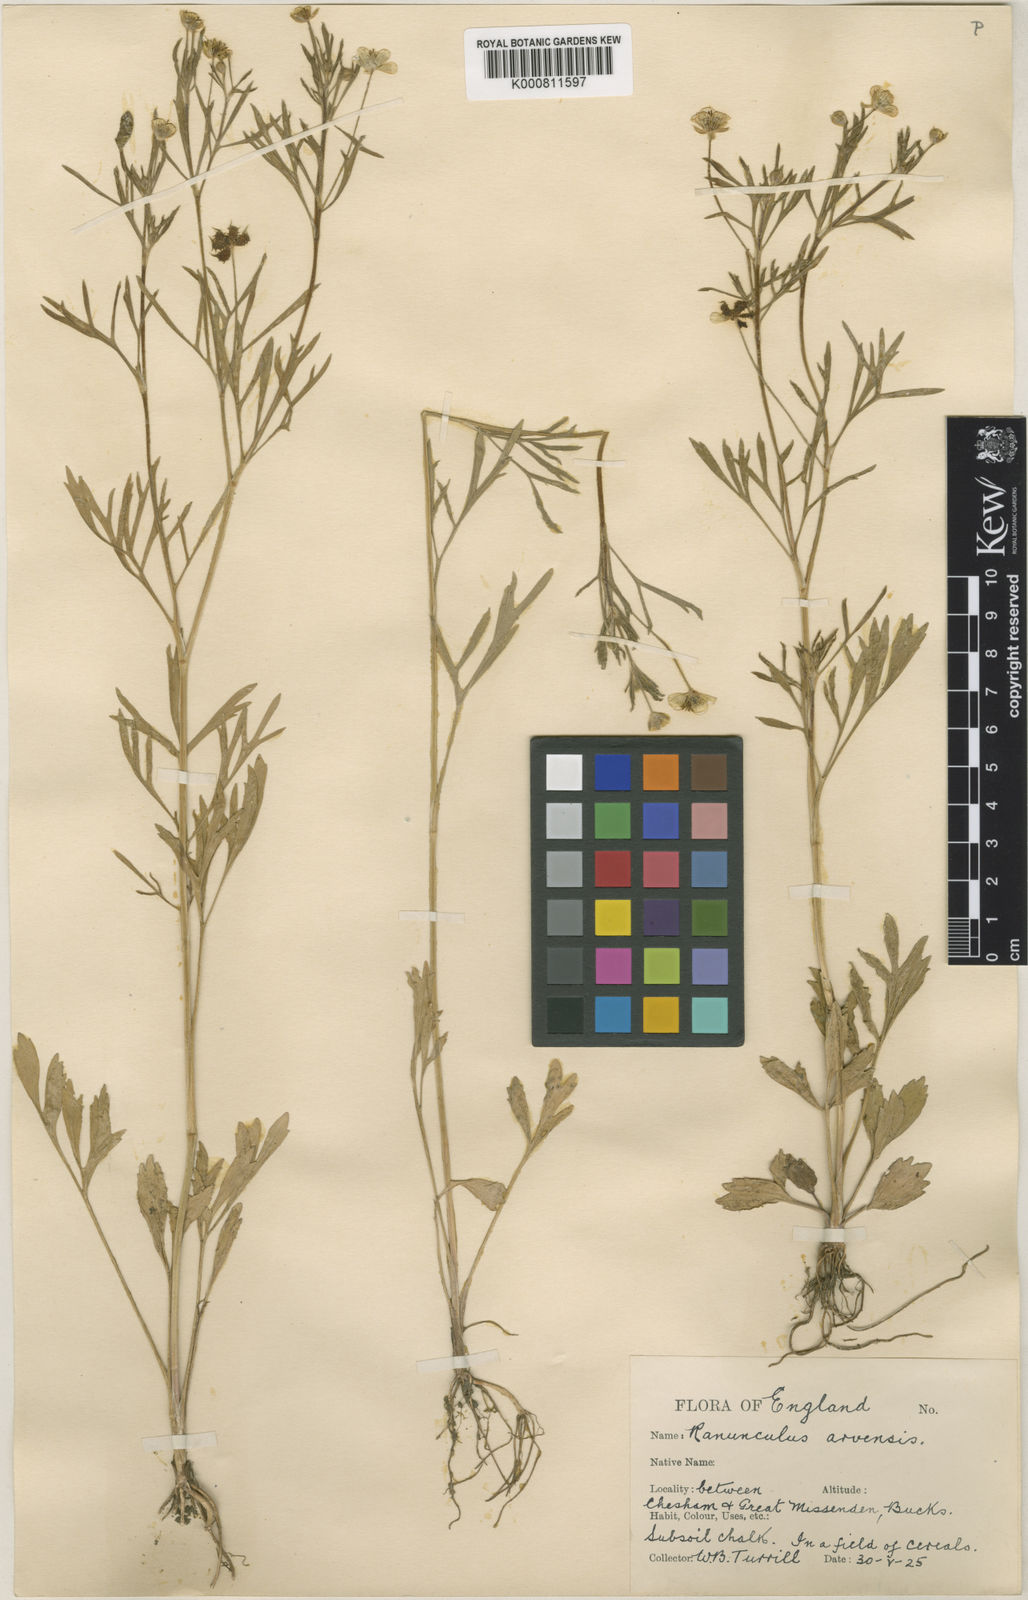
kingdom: Plantae
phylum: Tracheophyta
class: Magnoliopsida
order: Ranunculales
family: Ranunculaceae
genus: Ranunculus
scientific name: Ranunculus arvensis
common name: Corn buttercup
